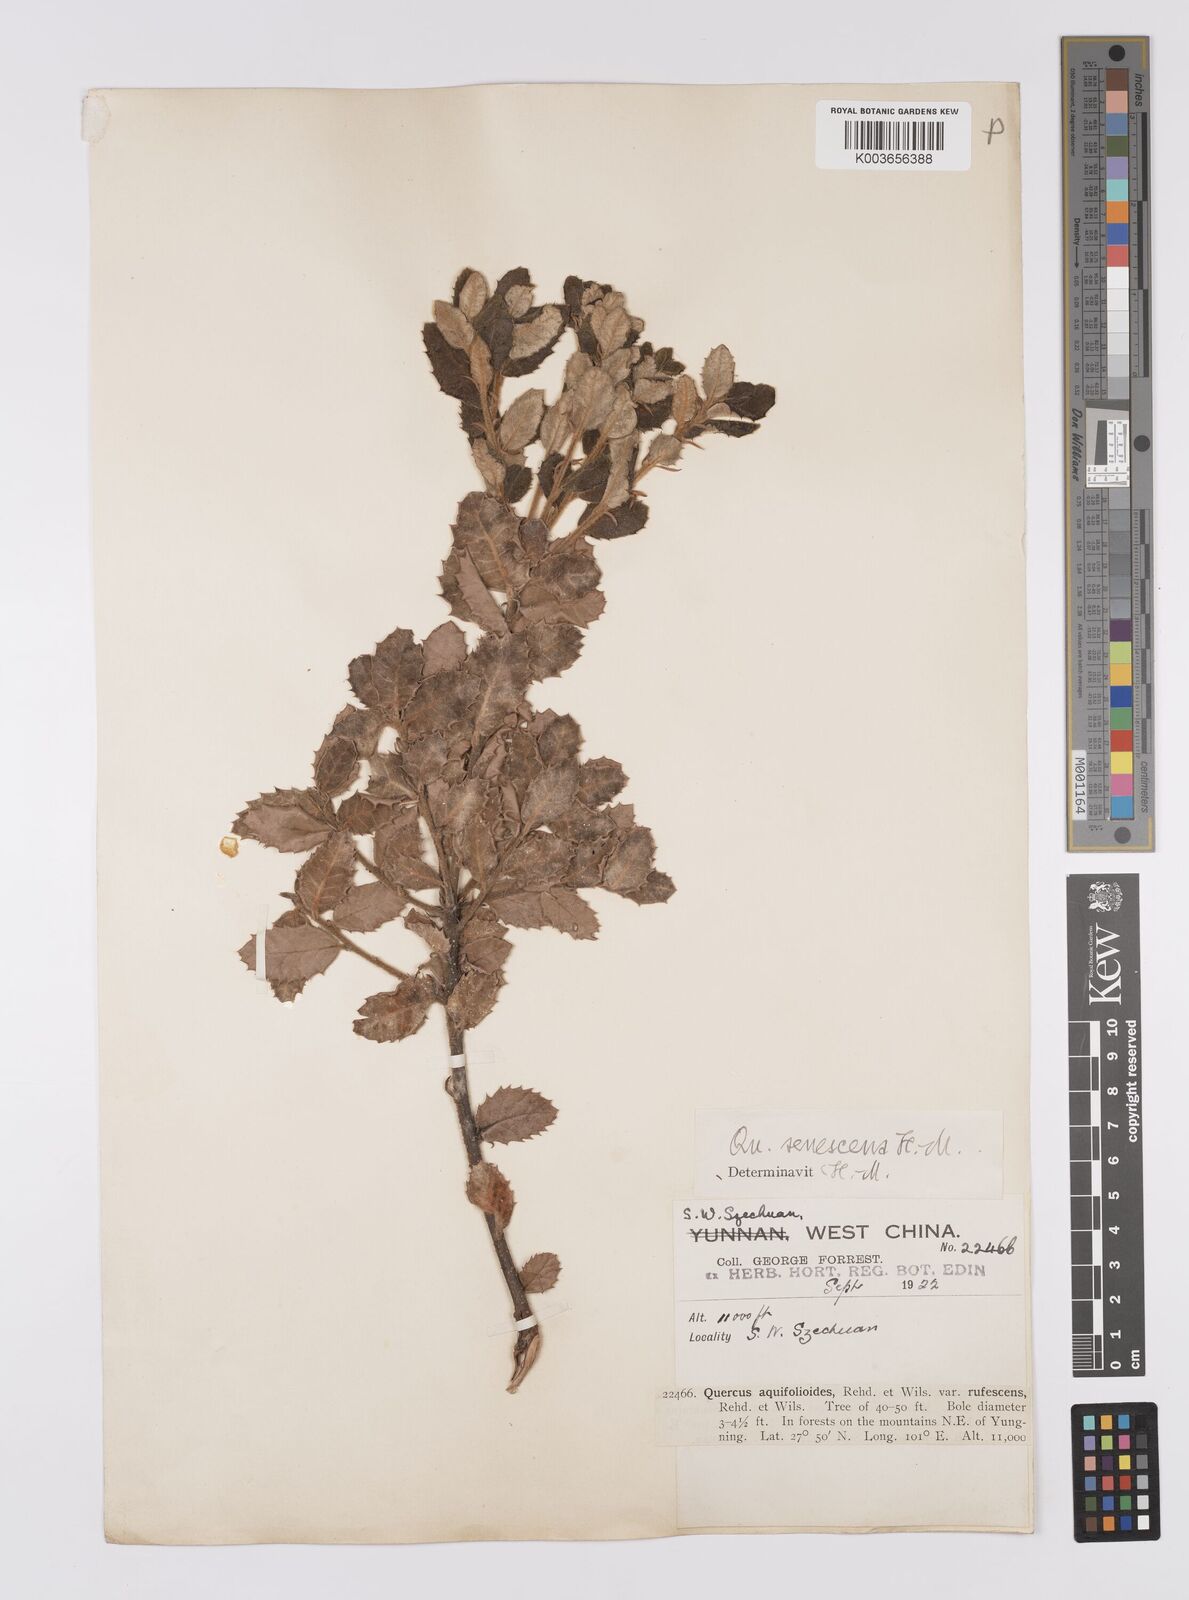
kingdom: Plantae
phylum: Tracheophyta
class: Magnoliopsida
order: Fagales
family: Fagaceae
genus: Quercus
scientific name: Quercus senescens
